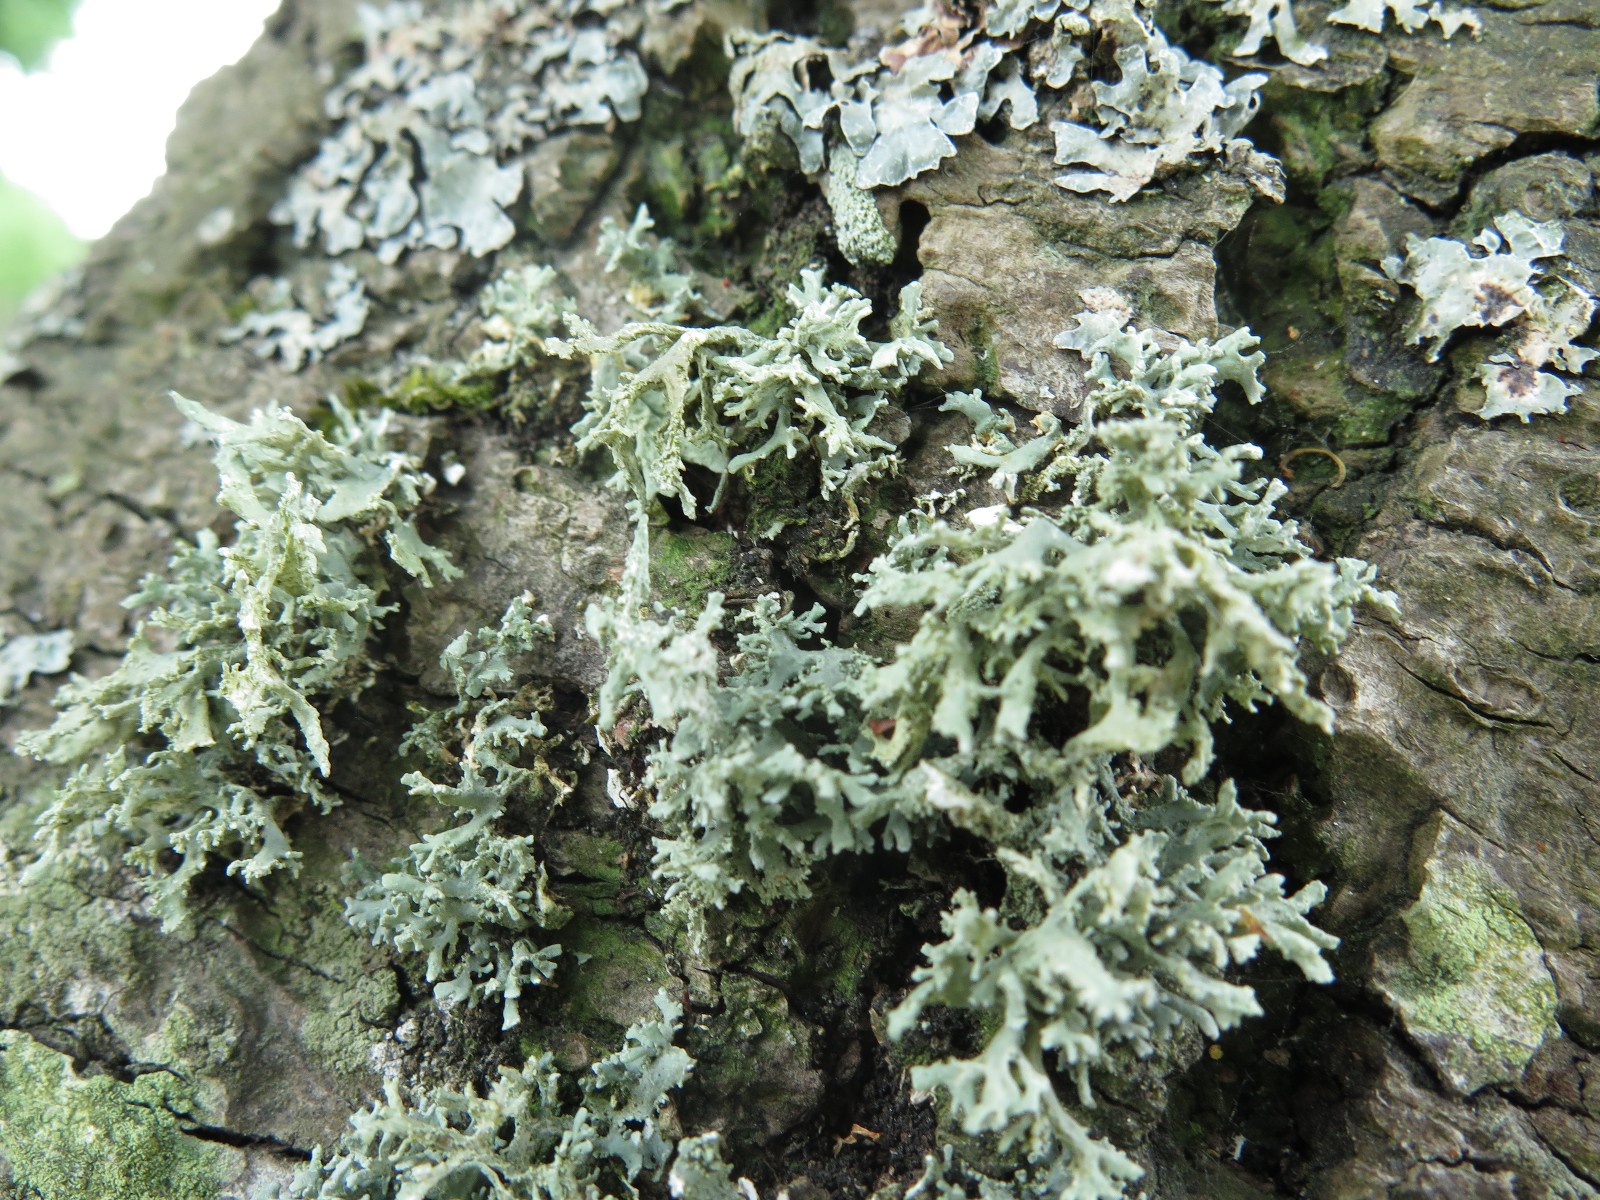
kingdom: Fungi
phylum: Ascomycota
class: Lecanoromycetes
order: Lecanorales
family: Parmeliaceae
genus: Evernia
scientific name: Evernia prunastri
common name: almindelig slåenlav
